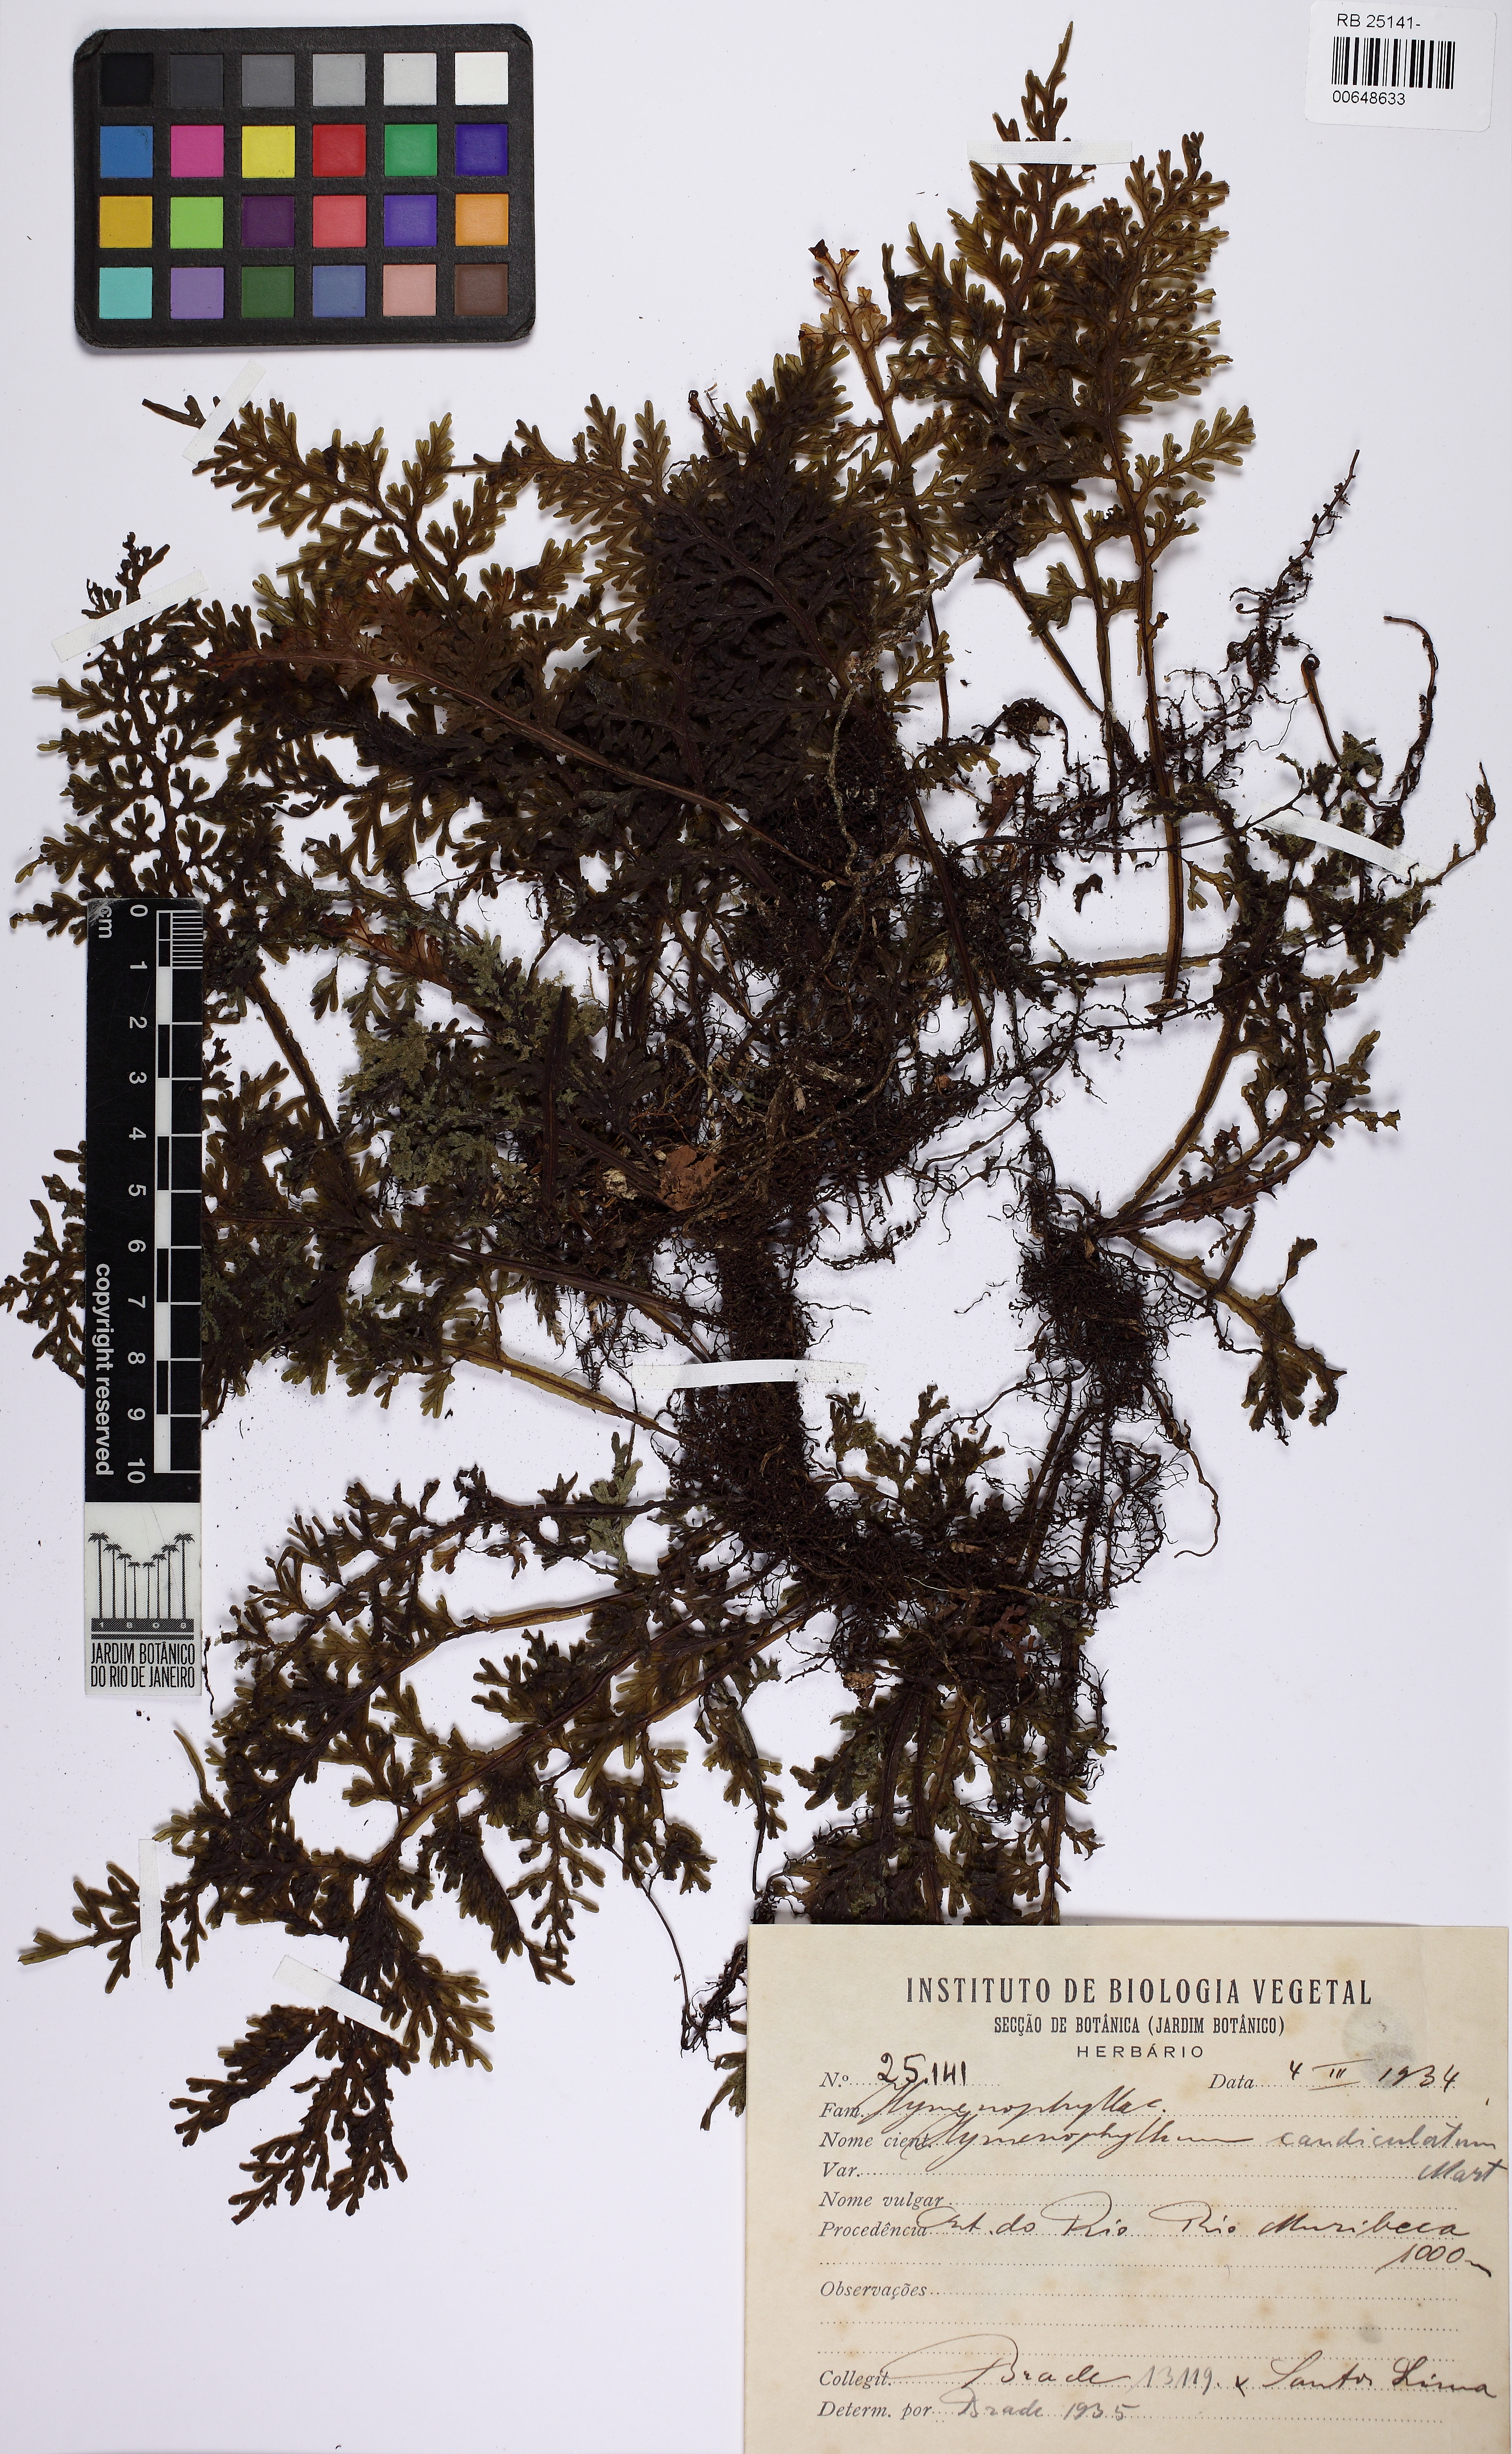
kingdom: Plantae
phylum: Tracheophyta
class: Polypodiopsida
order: Hymenophyllales
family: Hymenophyllaceae
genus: Hymenophyllum
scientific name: Hymenophyllum caudiculatum
